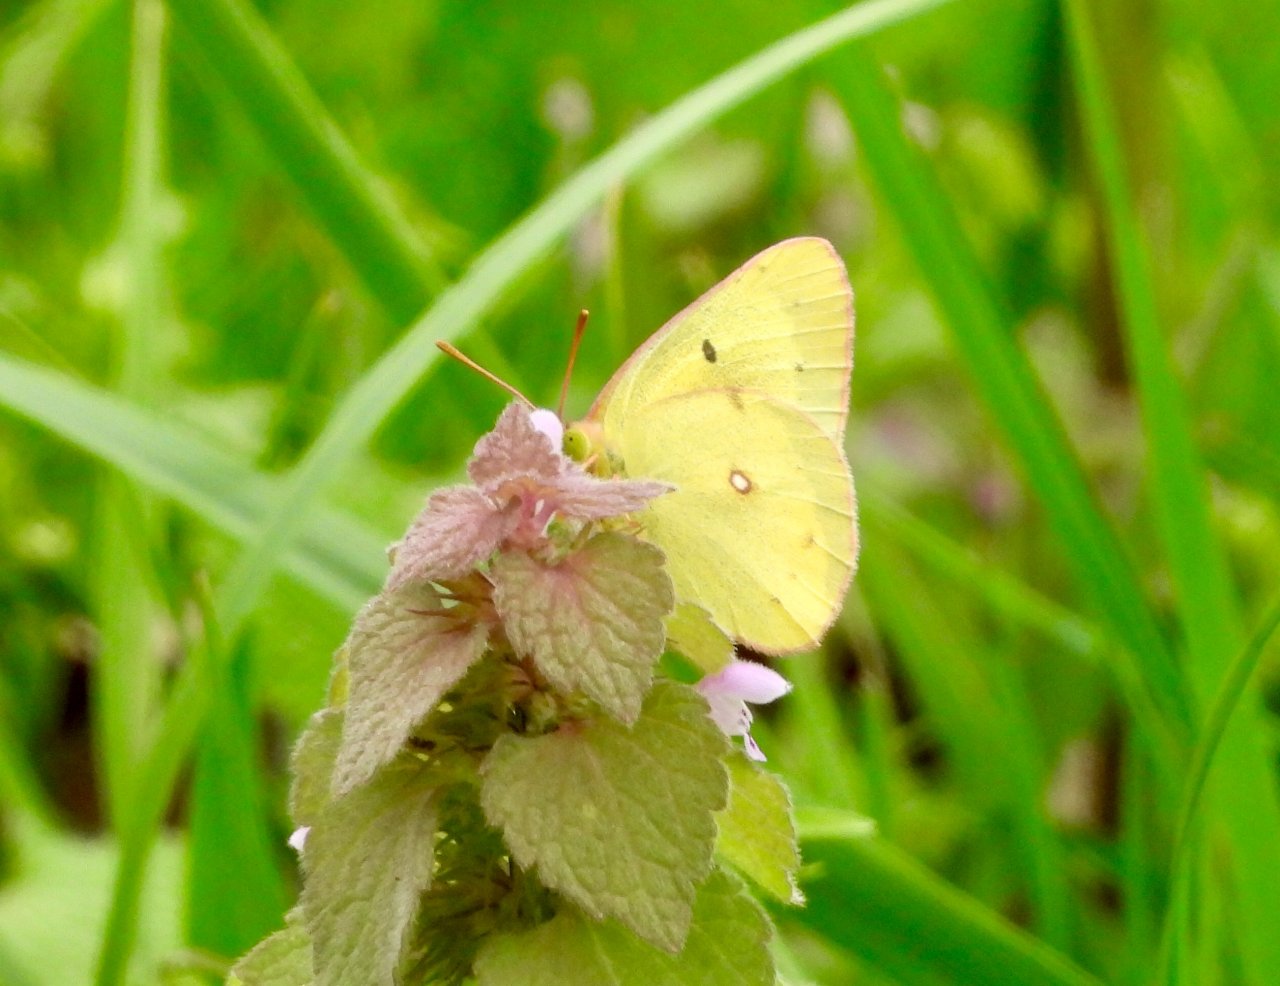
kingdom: Animalia
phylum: Arthropoda
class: Insecta
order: Lepidoptera
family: Pieridae
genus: Colias
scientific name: Colias philodice
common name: Clouded Sulphur
